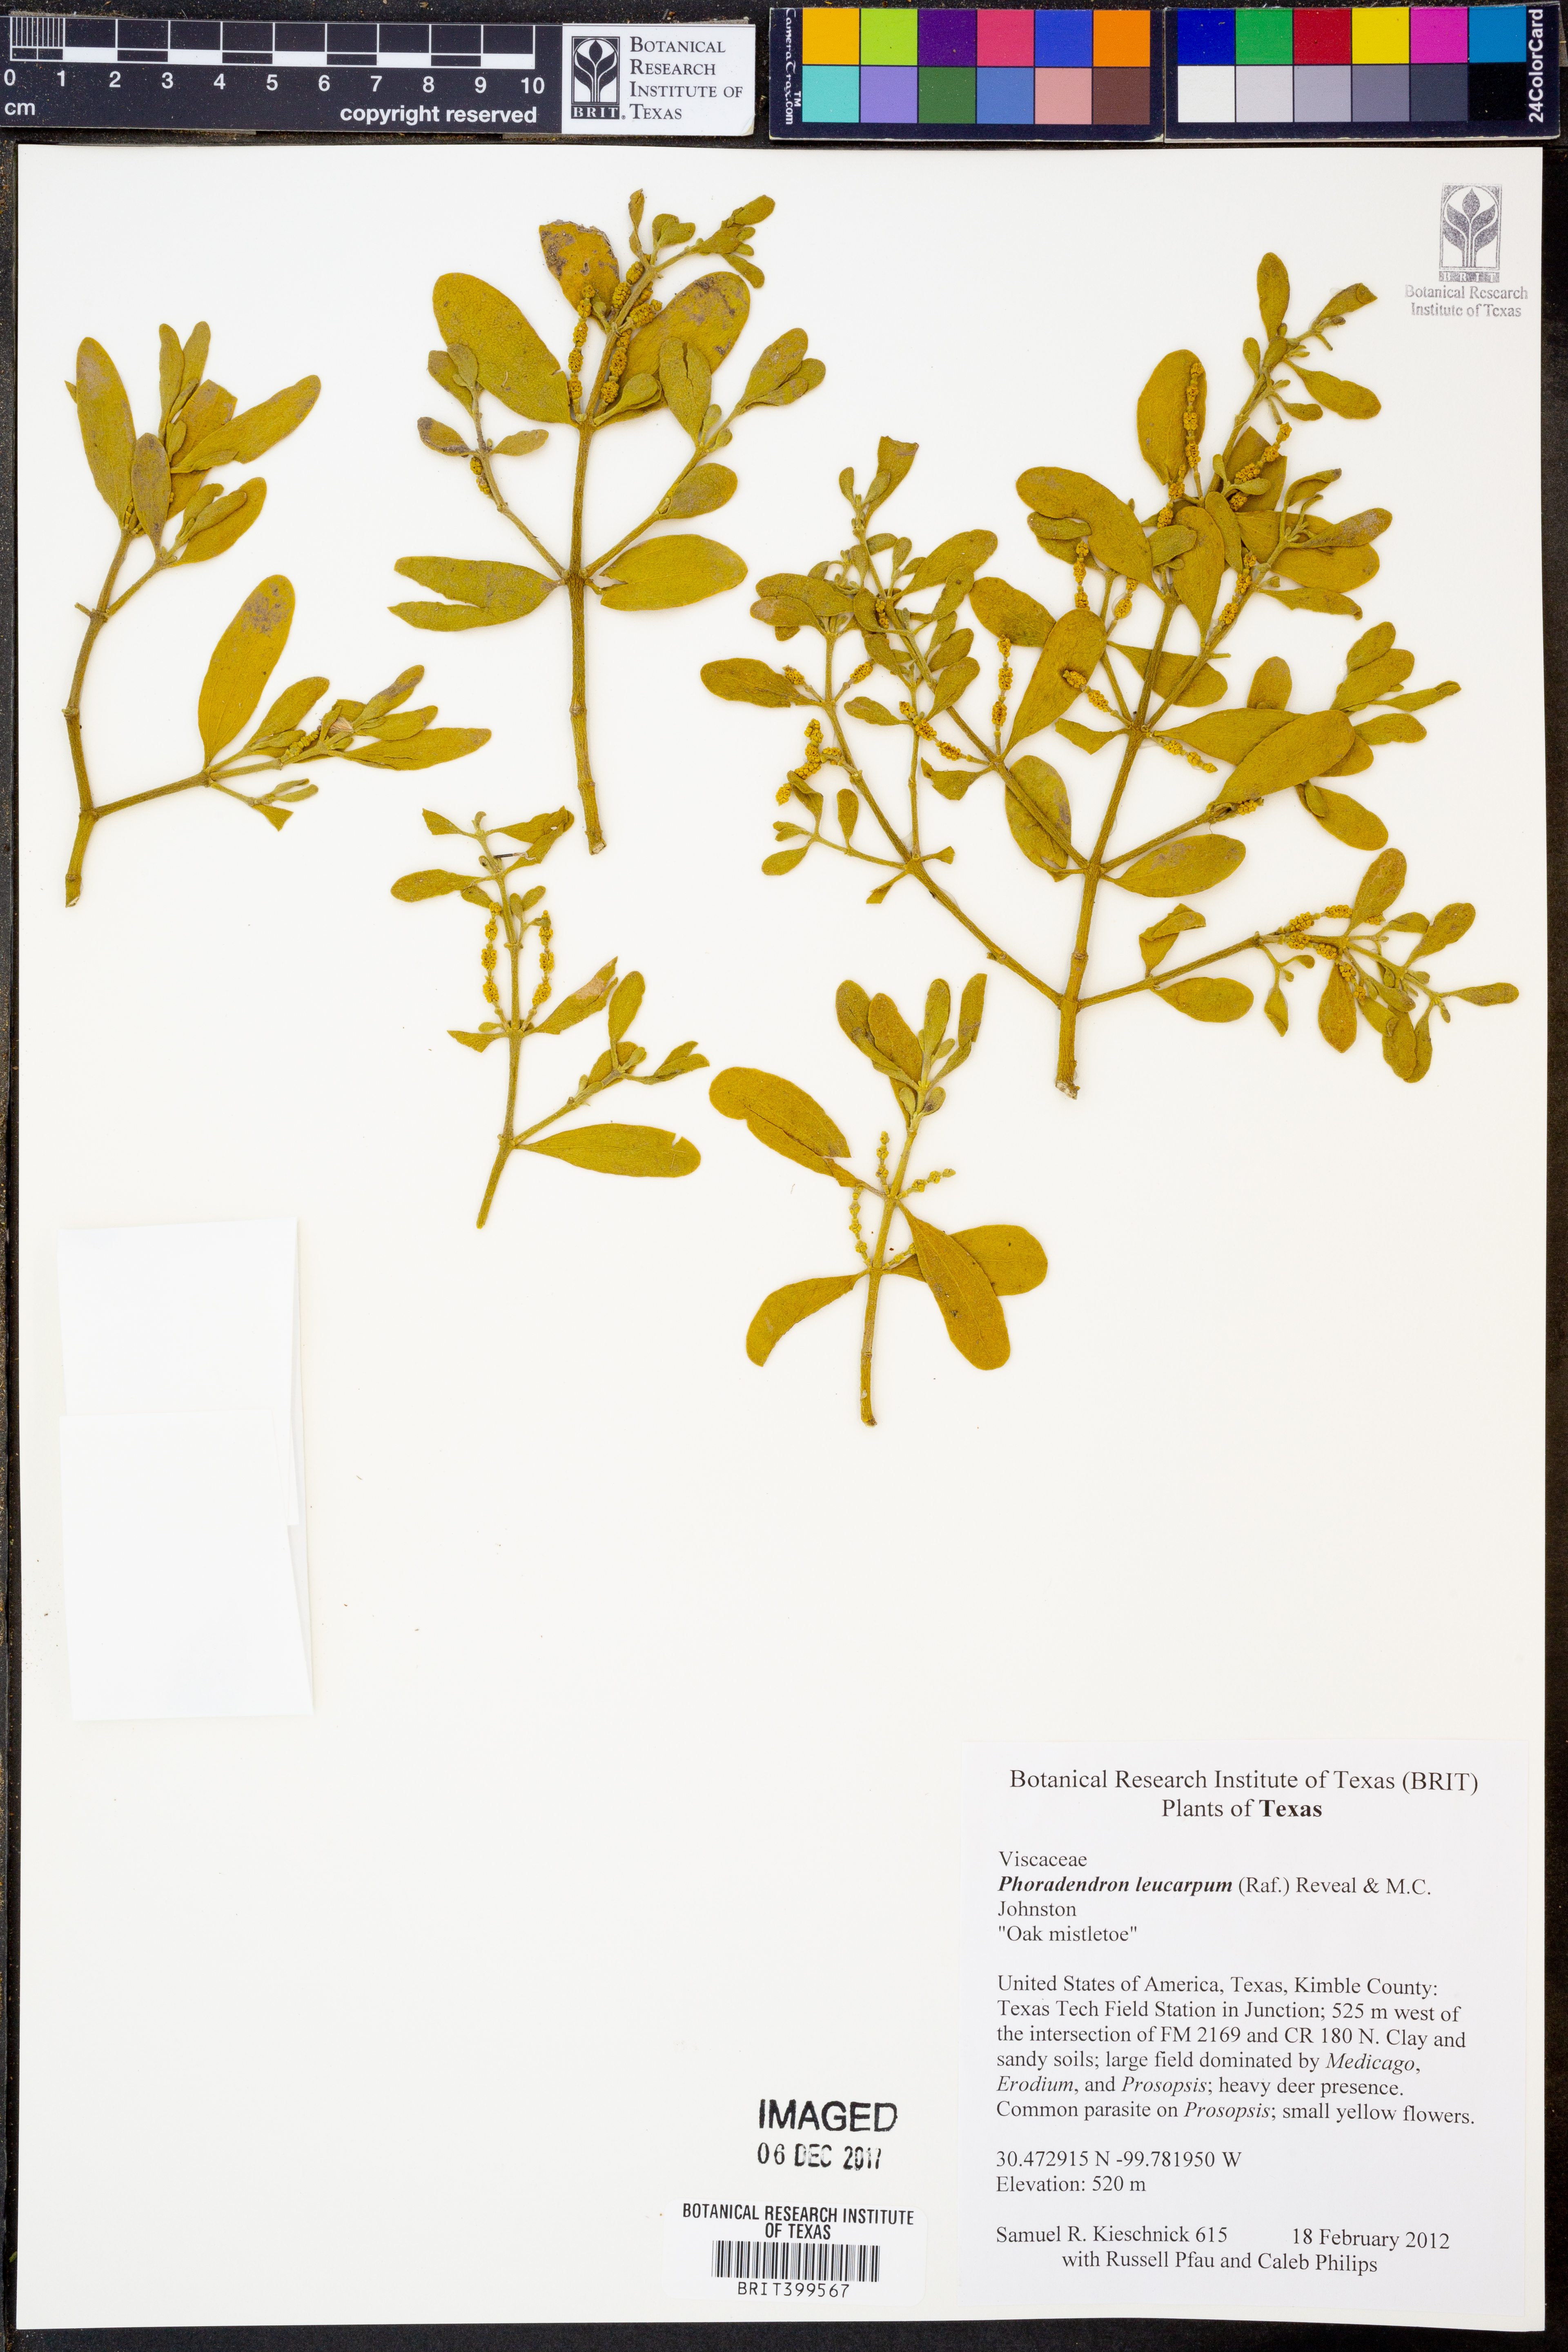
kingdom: Plantae
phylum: Tracheophyta
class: Magnoliopsida
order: Santalales
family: Viscaceae
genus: Phoradendron
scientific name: Phoradendron leucarpum
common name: Pacific mistletoe
